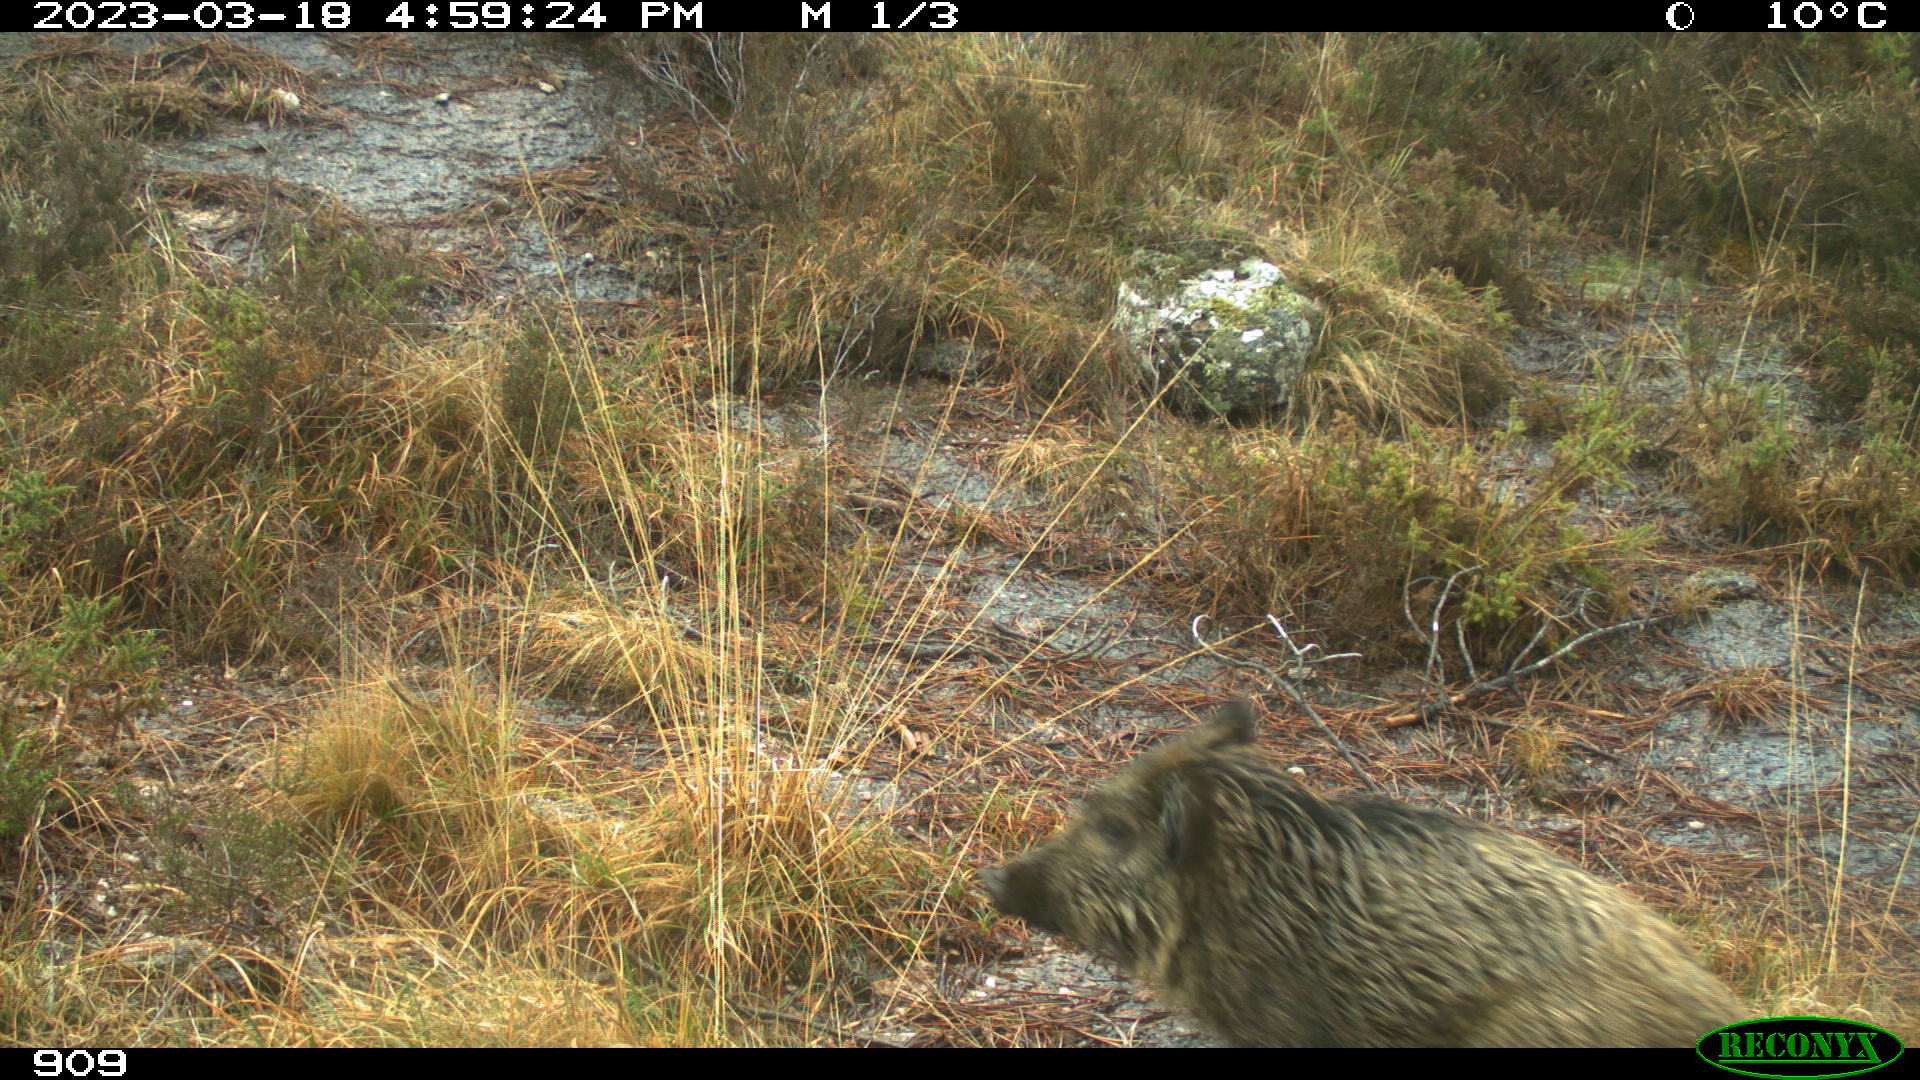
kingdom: Animalia
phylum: Chordata
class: Mammalia
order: Artiodactyla
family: Suidae
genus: Sus
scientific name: Sus scrofa
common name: Wild boar
